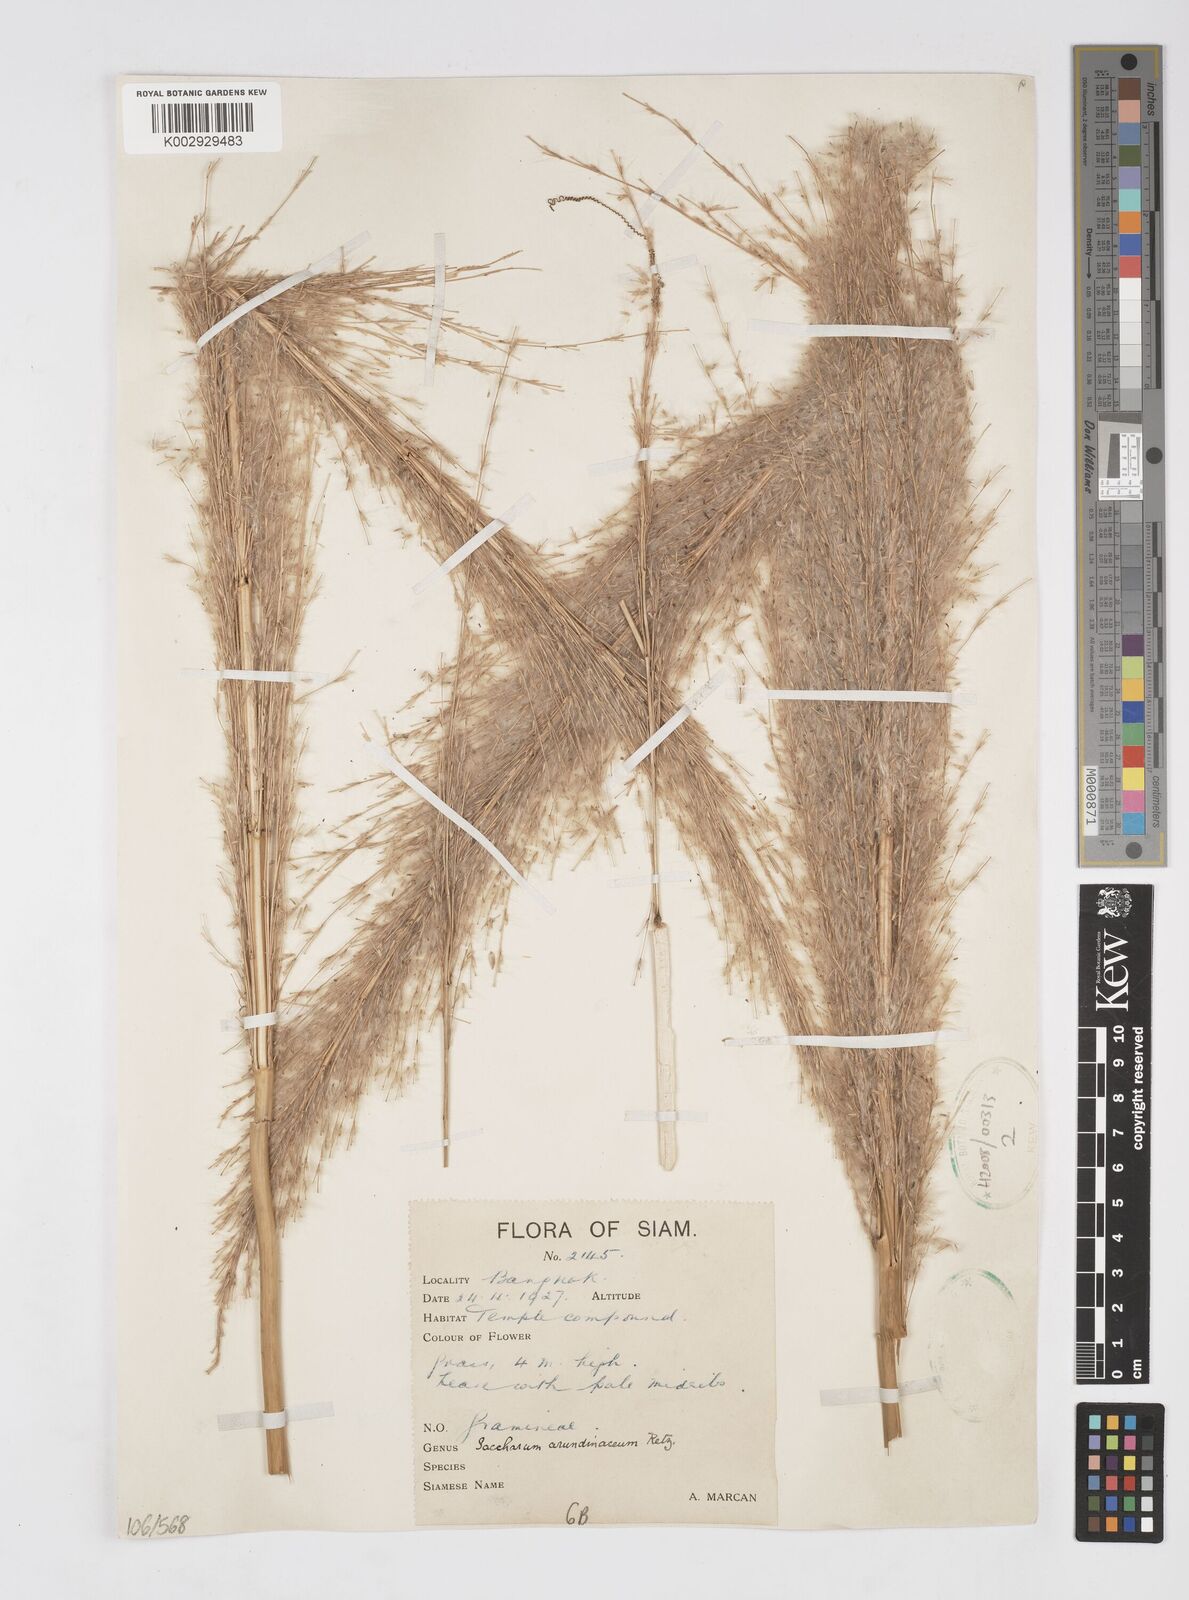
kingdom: Plantae
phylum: Tracheophyta
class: Liliopsida
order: Poales
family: Poaceae
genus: Tripidium
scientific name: Tripidium arundinaceum
